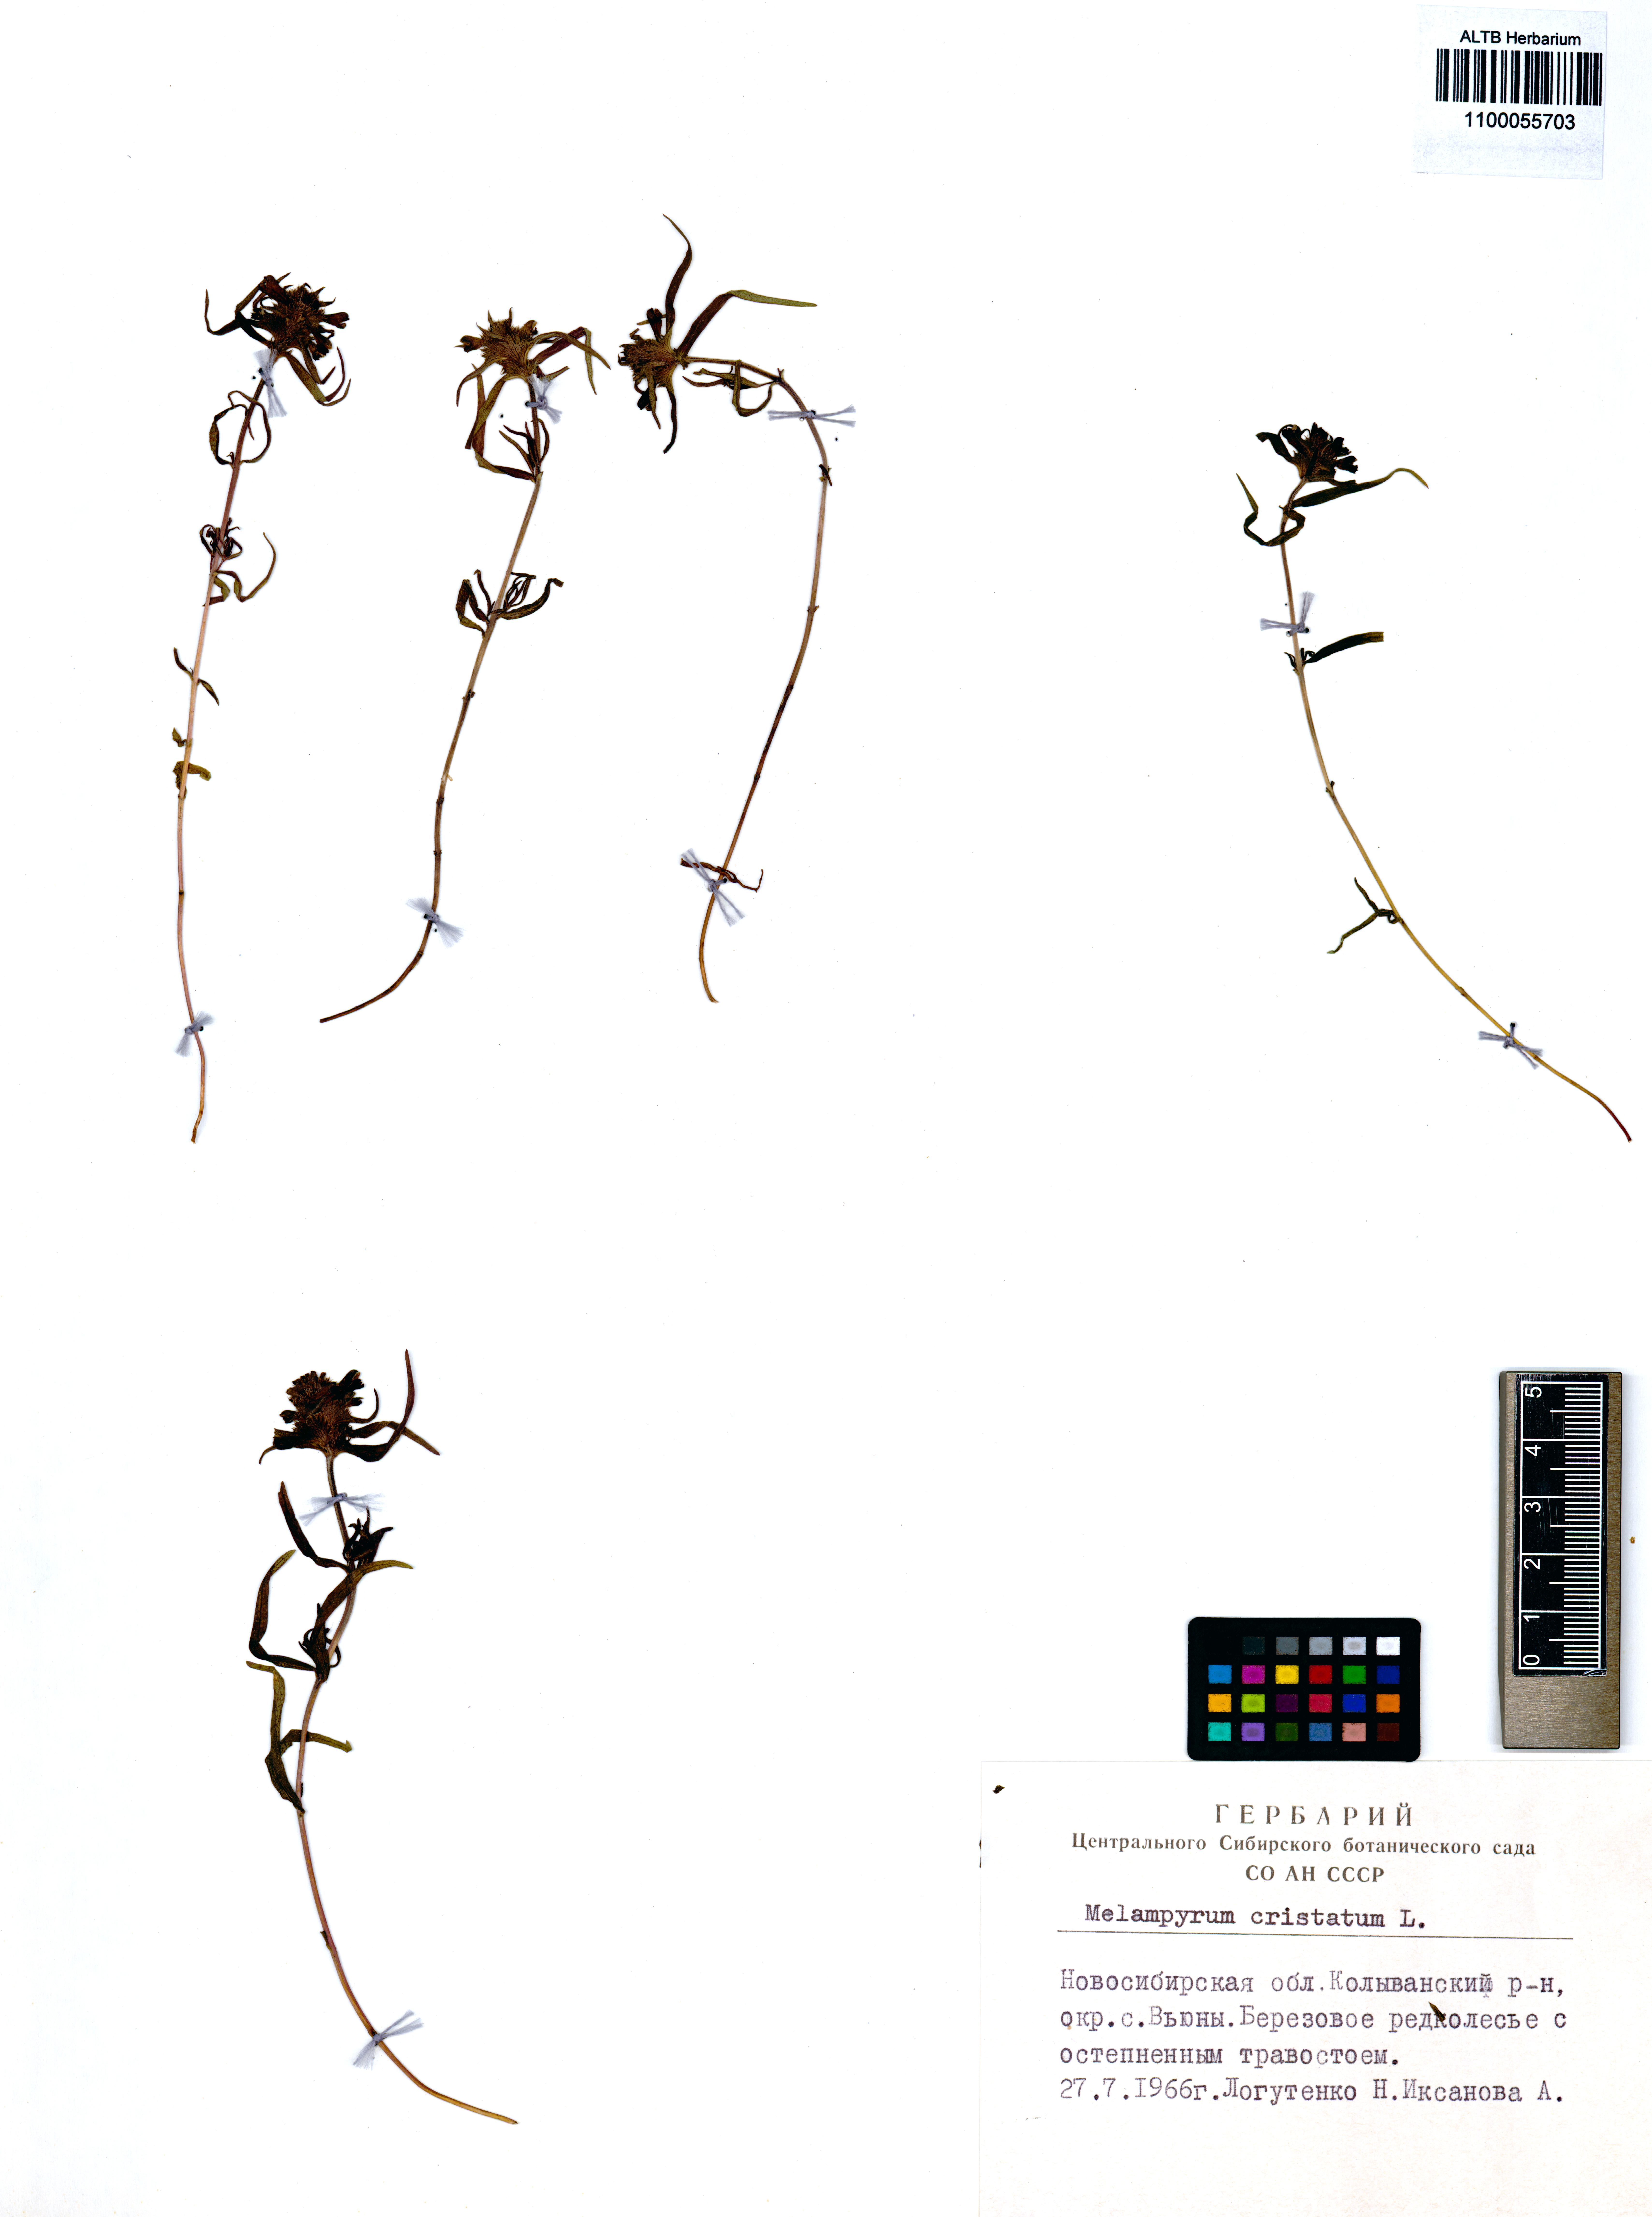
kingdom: Plantae
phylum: Tracheophyta
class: Magnoliopsida
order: Lamiales
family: Orobanchaceae
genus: Melampyrum
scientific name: Melampyrum cristatum
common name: Crested cow-wheat
